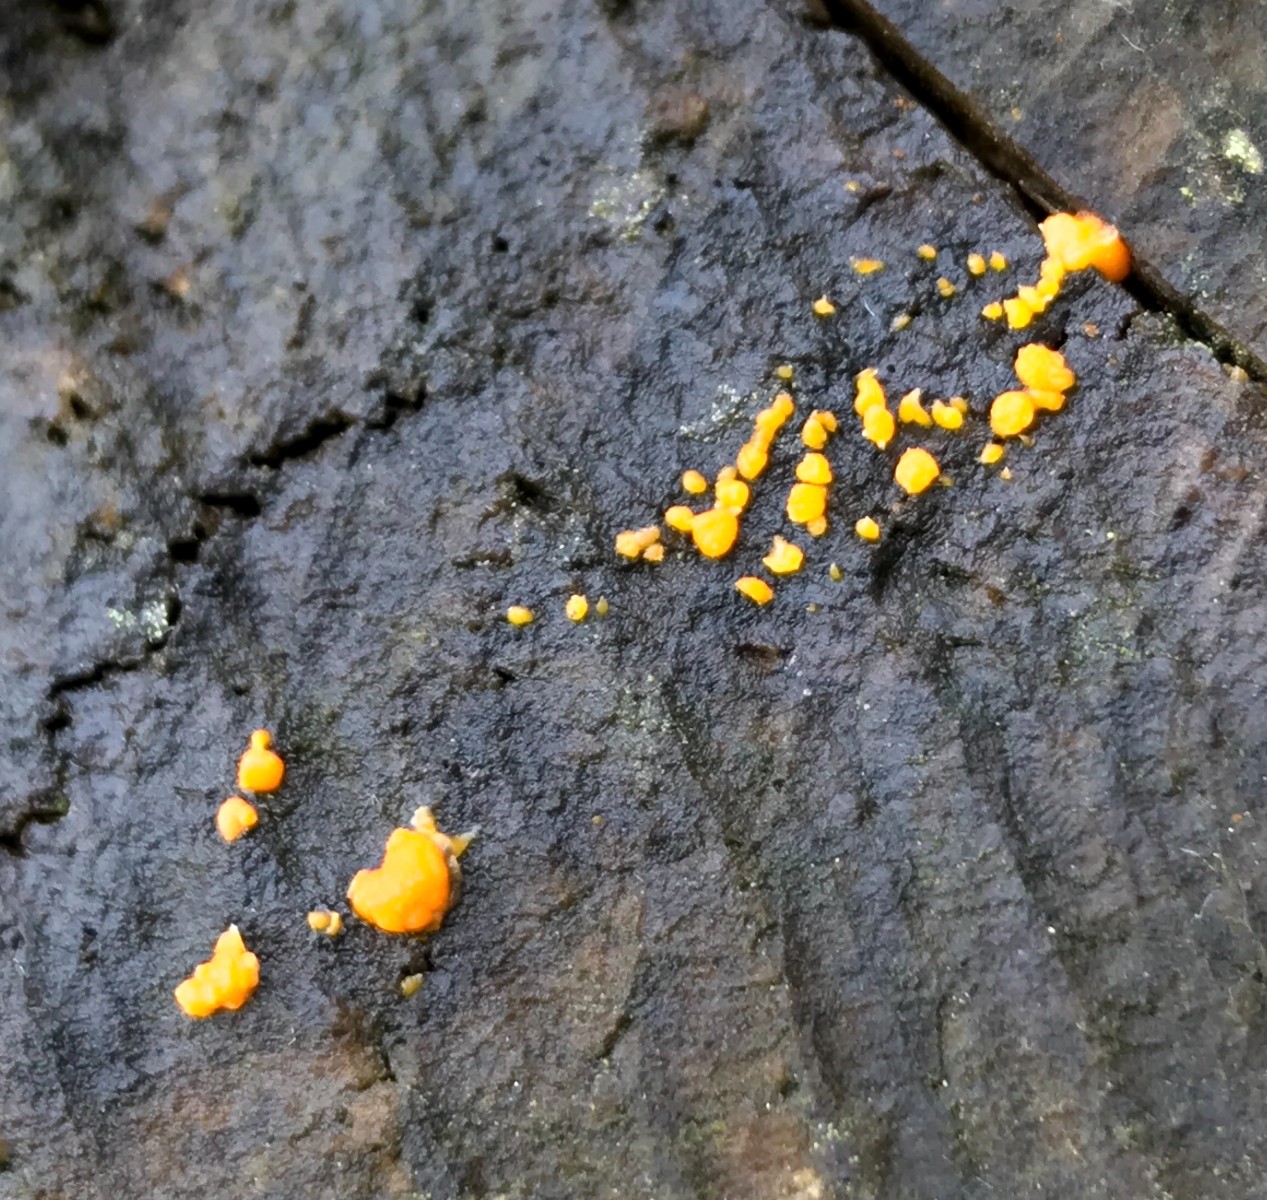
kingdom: Fungi
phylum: Basidiomycota
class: Dacrymycetes
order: Dacrymycetales
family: Dacrymycetaceae
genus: Dacrymyces
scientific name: Dacrymyces stillatus
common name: almindelig tåresvamp
